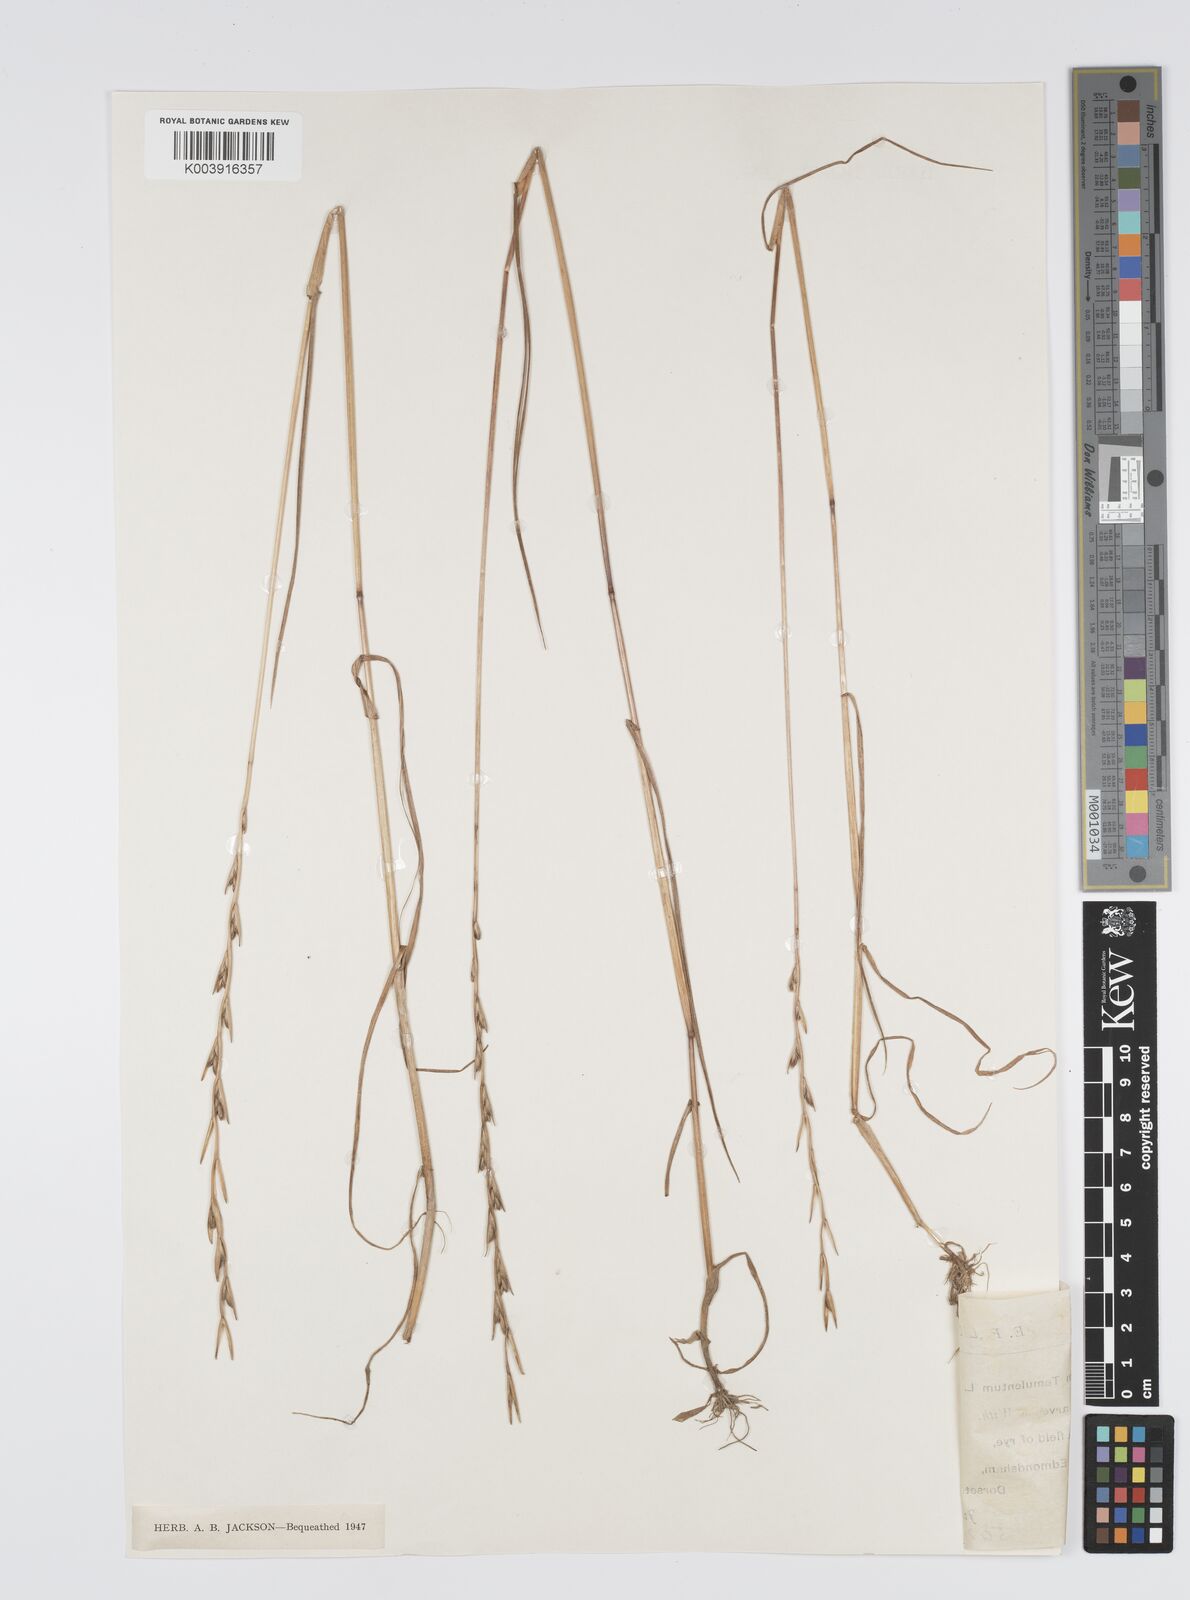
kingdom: Plantae
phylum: Tracheophyta
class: Liliopsida
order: Poales
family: Poaceae
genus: Lolium
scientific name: Lolium temulentum
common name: Darnel
